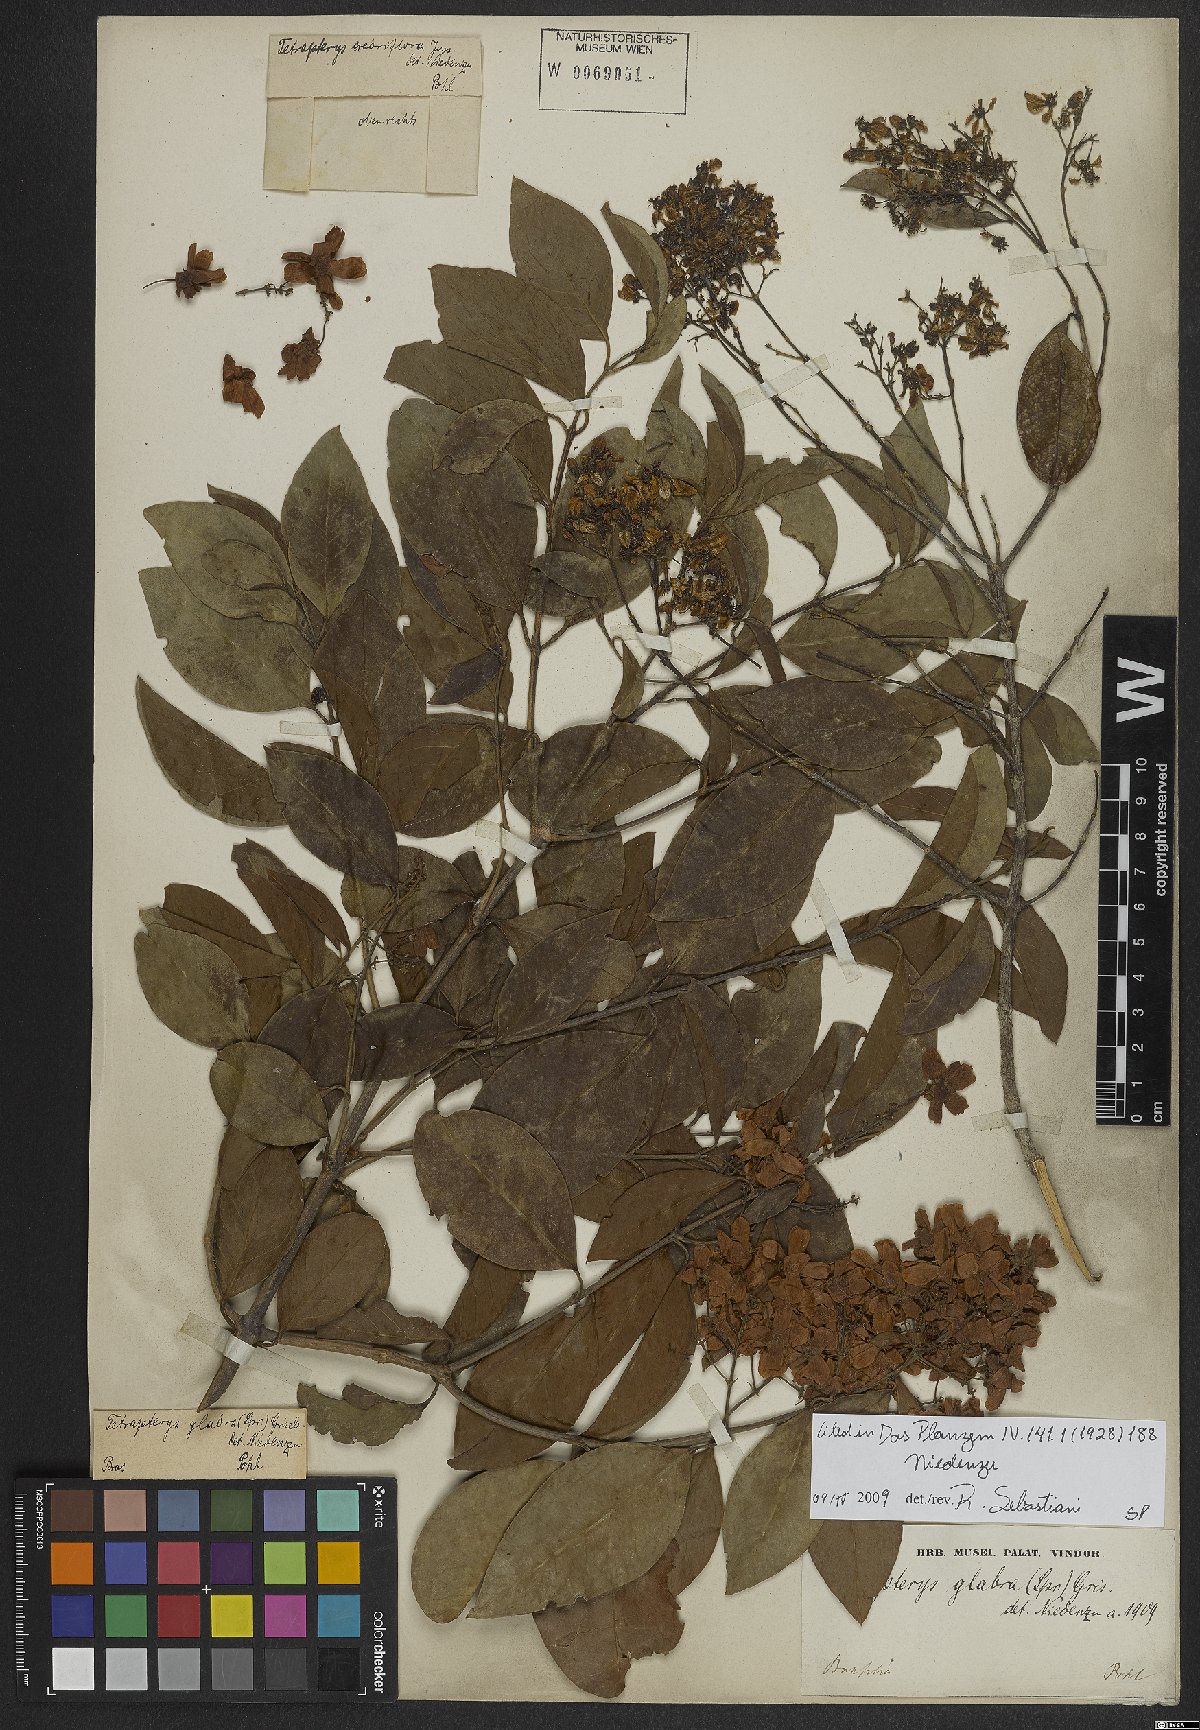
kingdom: Plantae
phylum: Tracheophyta
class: Magnoliopsida
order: Malpighiales
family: Malpighiaceae
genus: Niedenzuella
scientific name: Niedenzuella glabra
